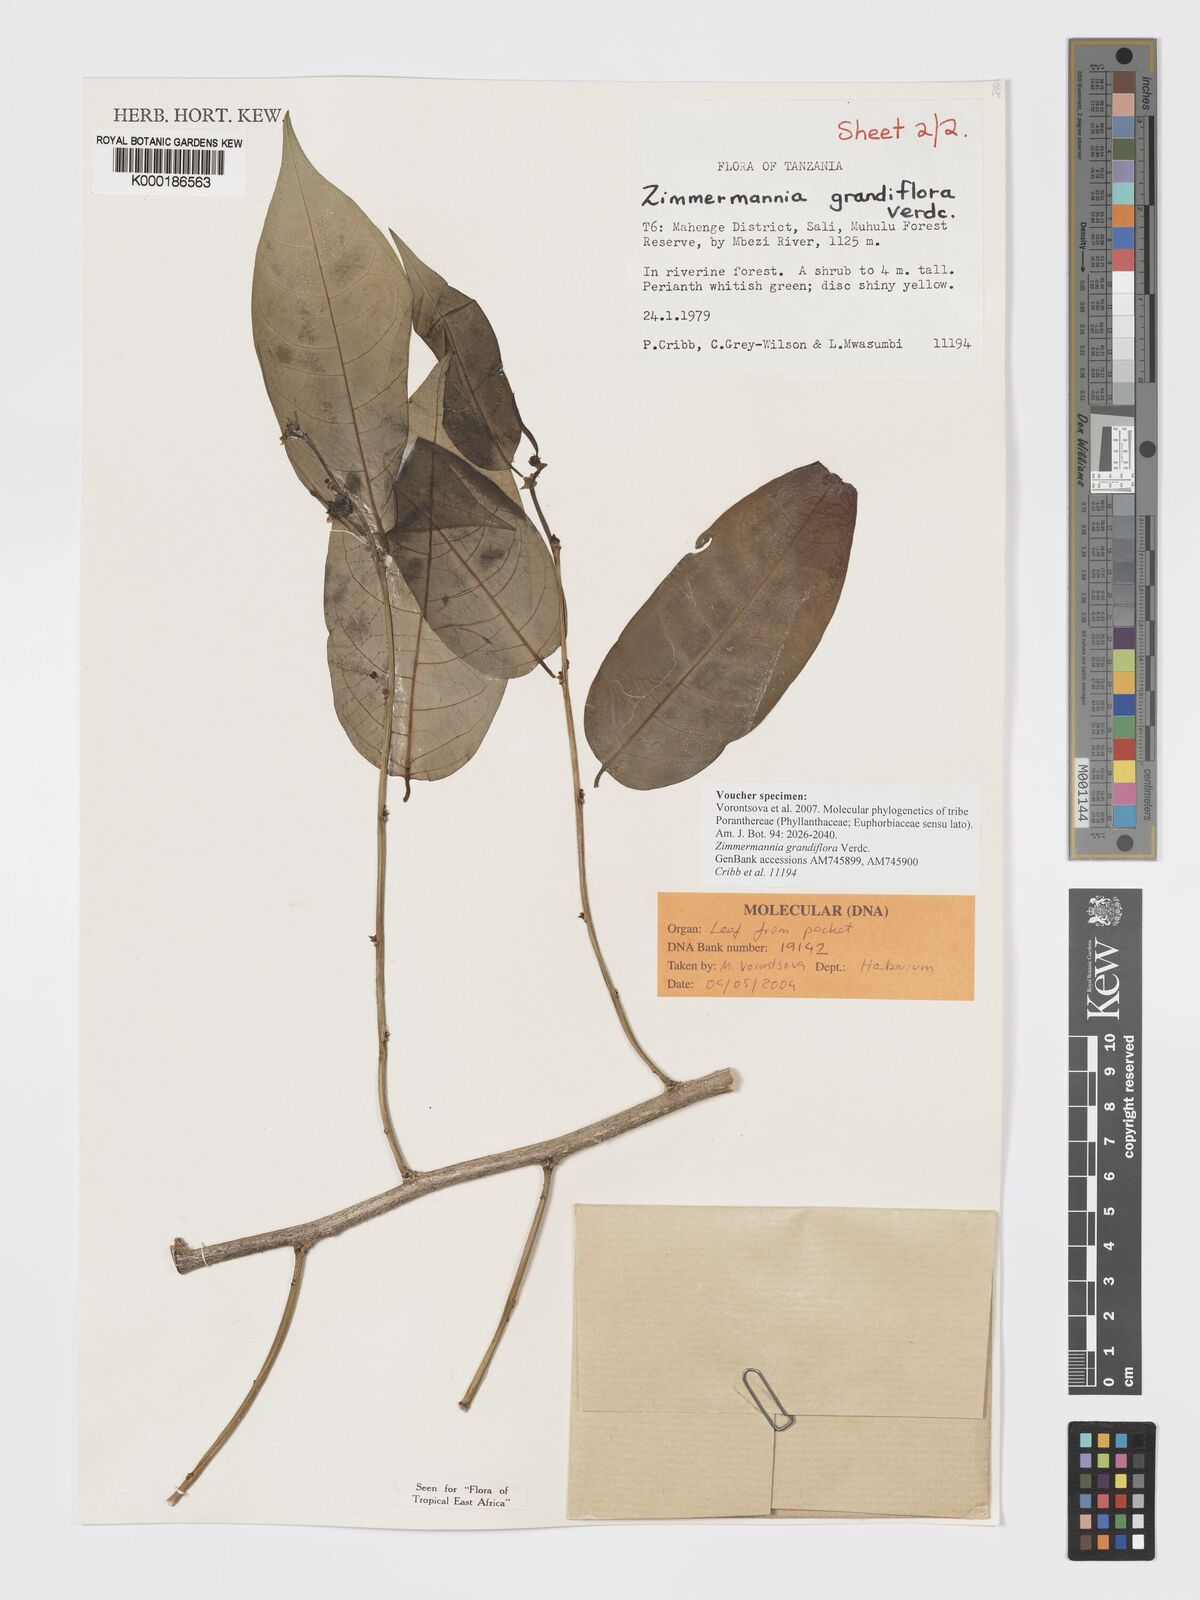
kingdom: Plantae
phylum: Tracheophyta
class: Magnoliopsida
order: Malpighiales
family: Phyllanthaceae
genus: Meineckia
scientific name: Meineckia grandiflora
